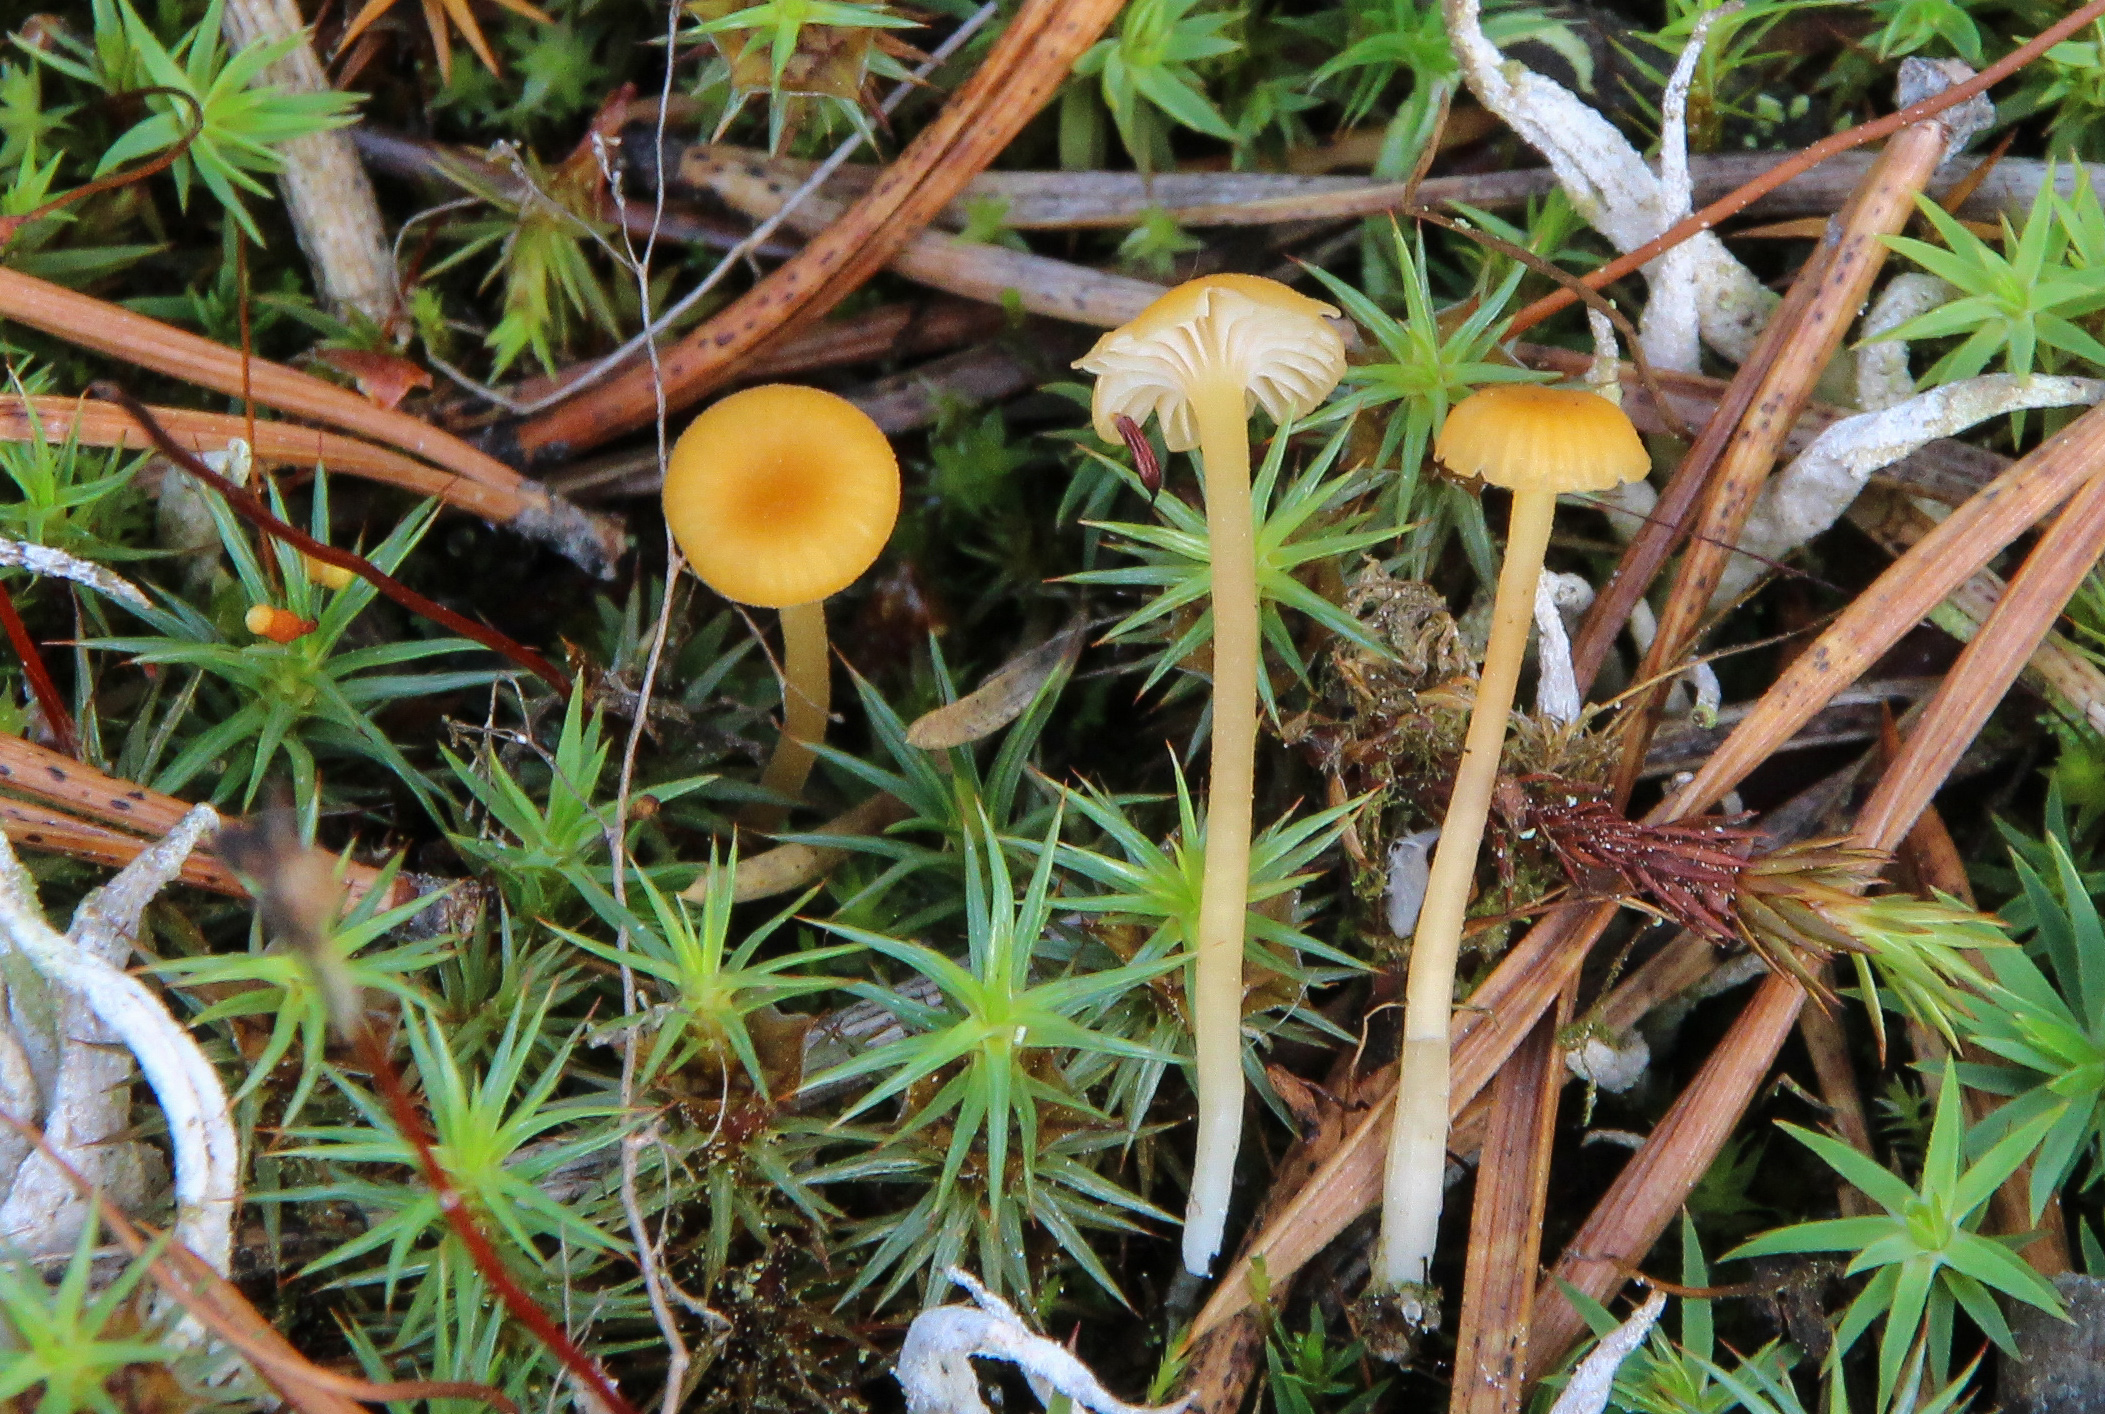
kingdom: Fungi
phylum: Basidiomycota
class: Agaricomycetes
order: Hymenochaetales
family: Rickenellaceae
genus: Rickenella
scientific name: Rickenella fibula
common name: Orange mosscap
